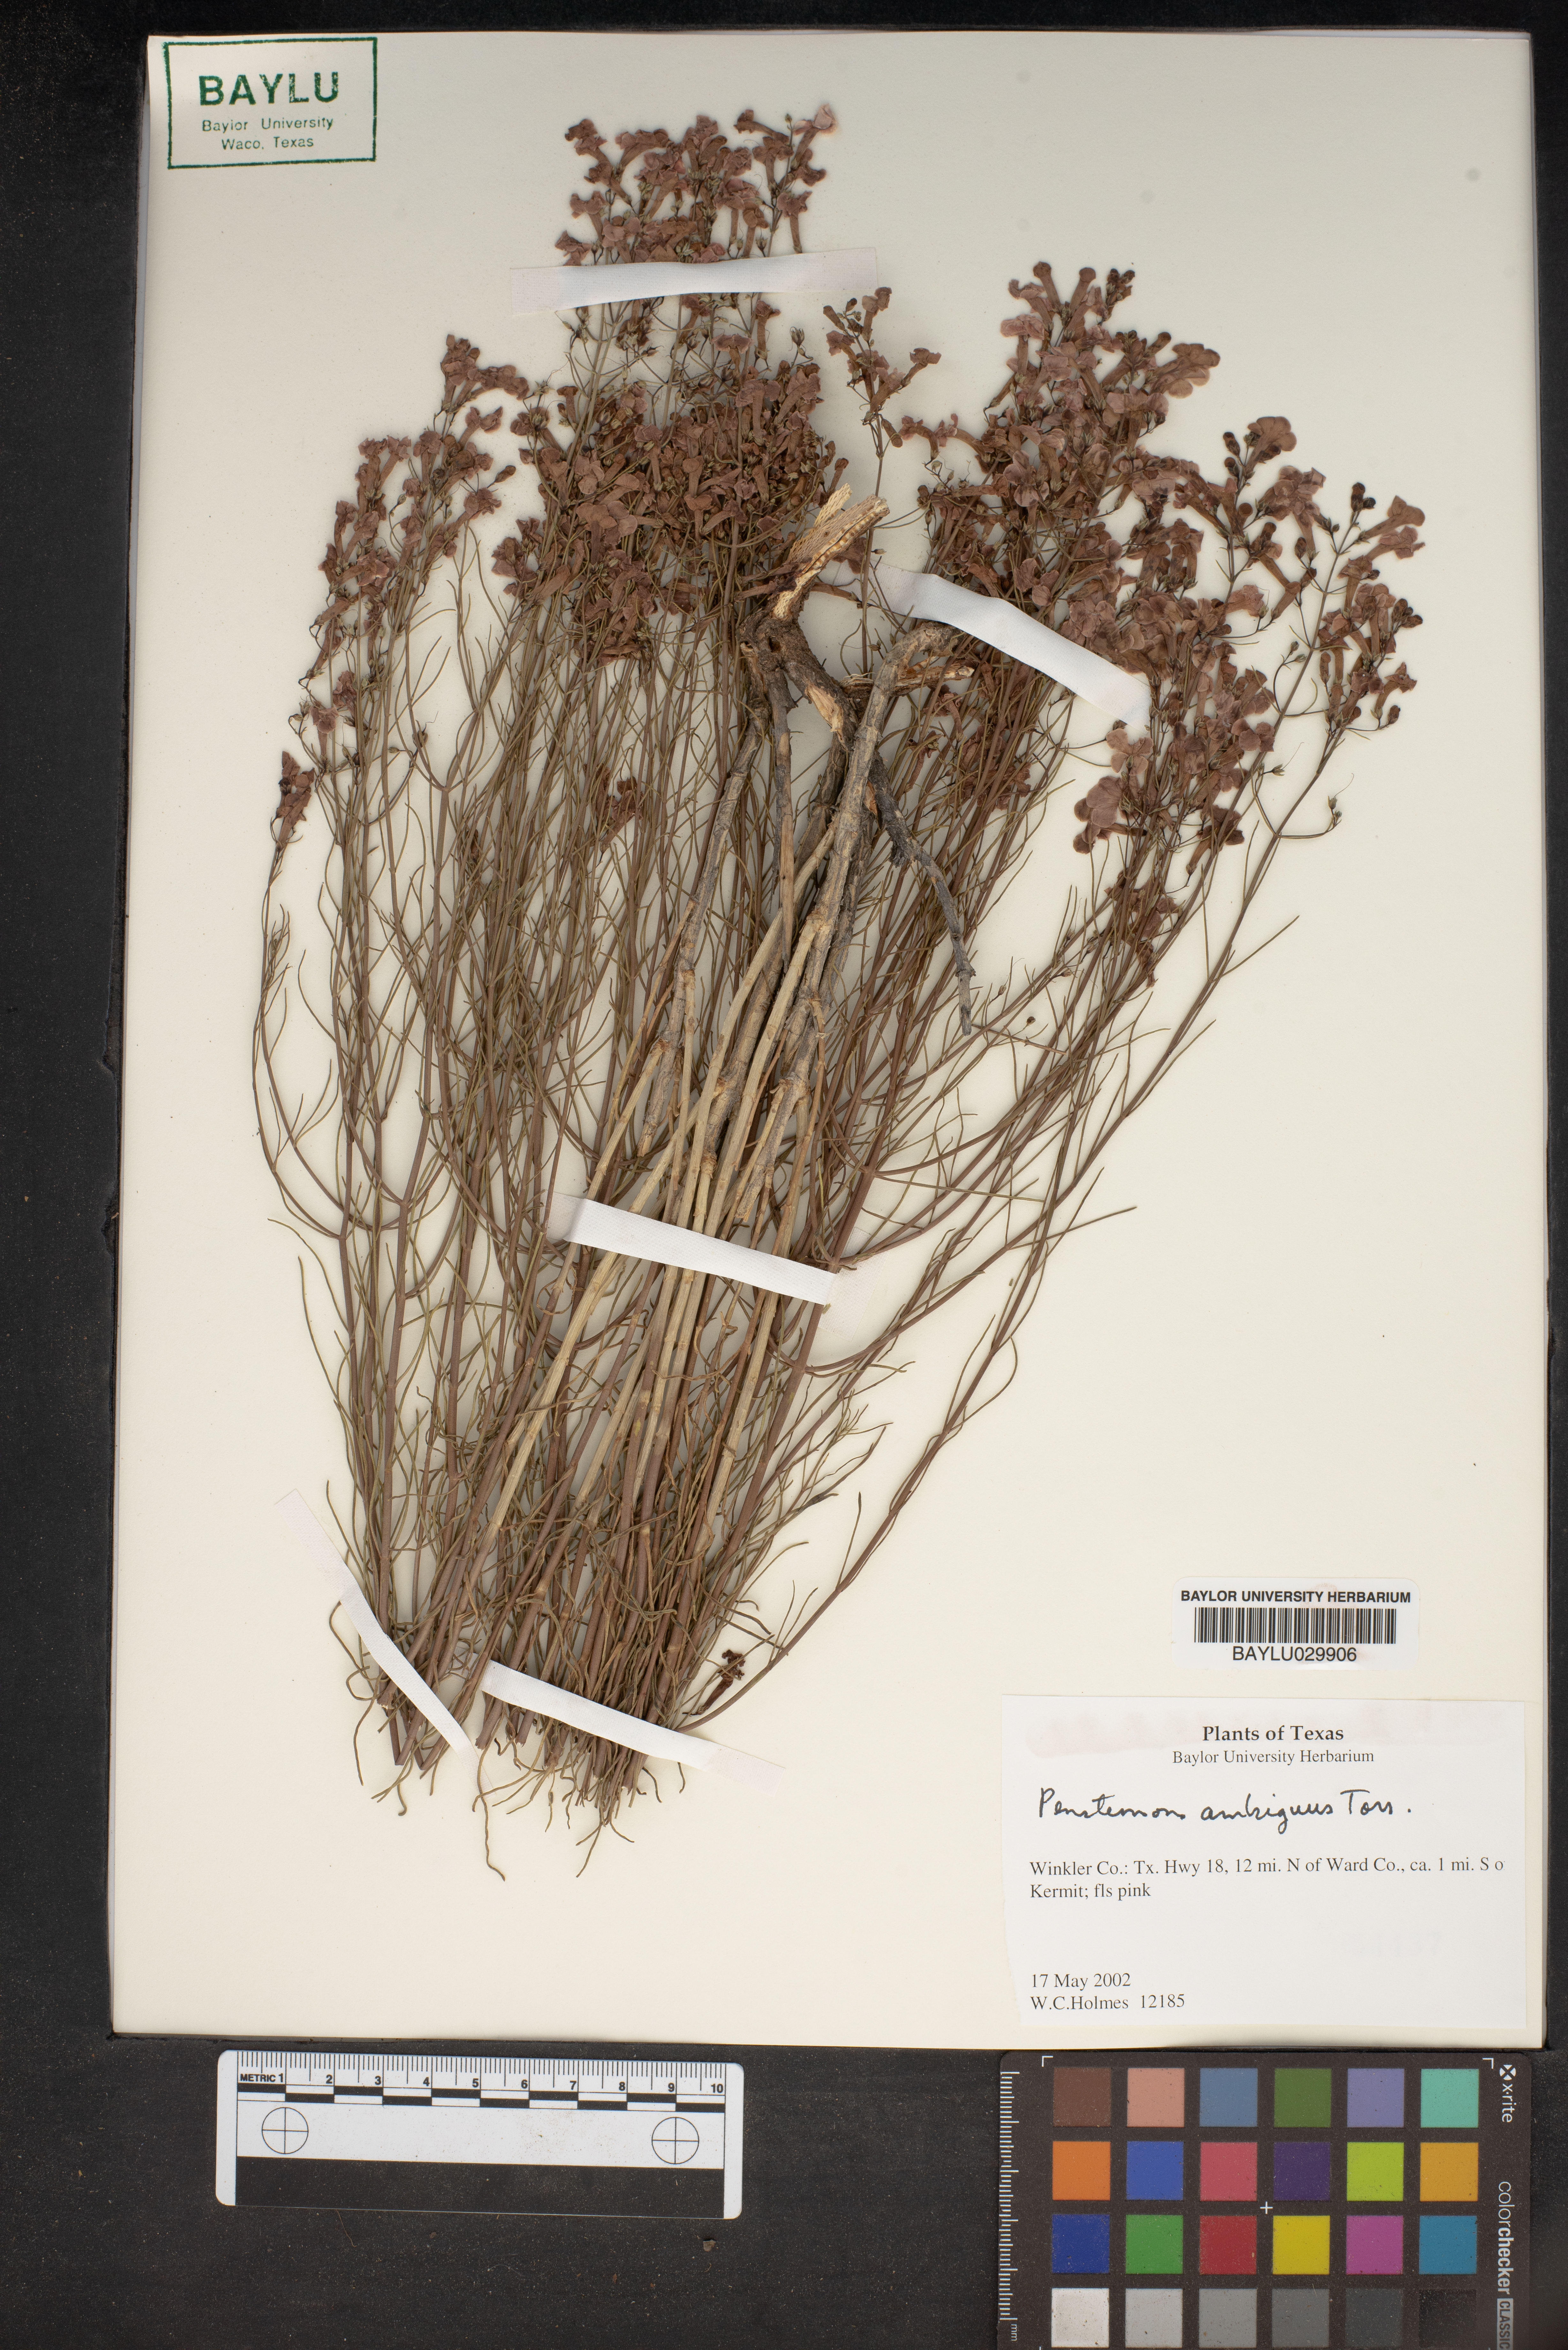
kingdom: Plantae
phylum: Tracheophyta
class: Magnoliopsida
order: Lamiales
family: Plantaginaceae
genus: Penstemon
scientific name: Penstemon ambiguus
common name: Bush penstemon
